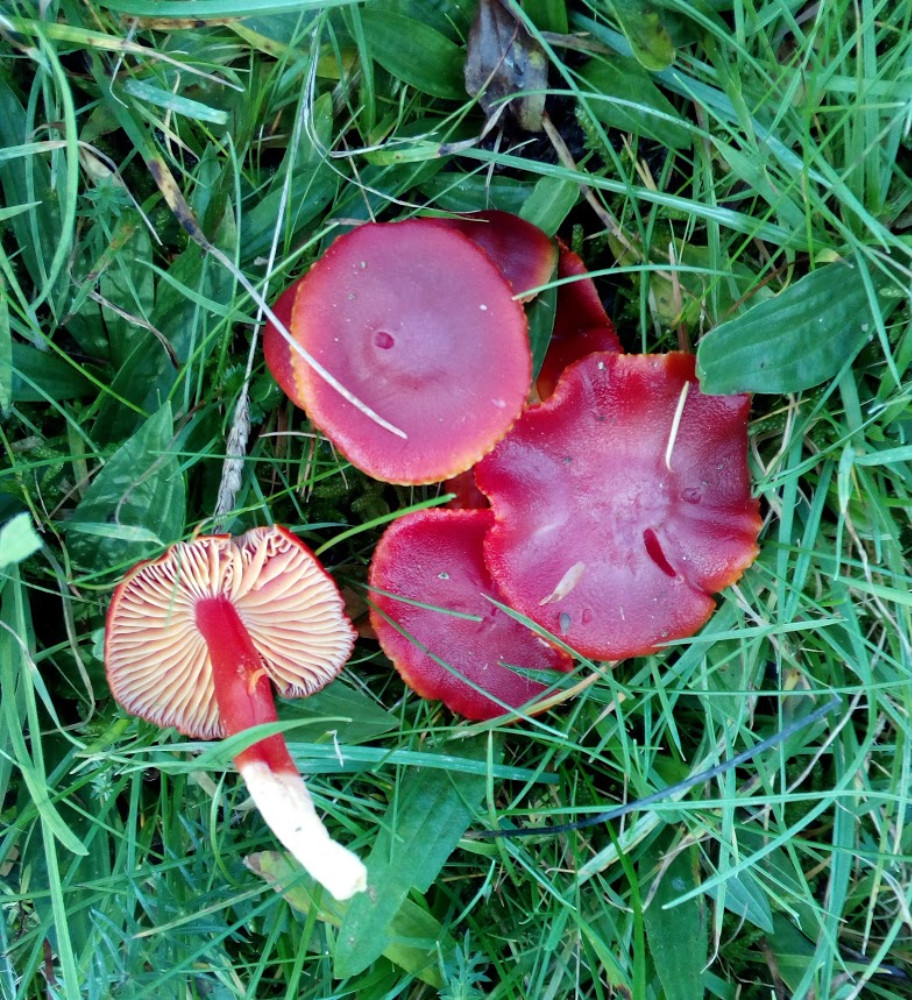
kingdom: Fungi
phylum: Basidiomycota
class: Agaricomycetes
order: Agaricales
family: Hygrophoraceae
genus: Hygrocybe
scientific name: Hygrocybe coccinea
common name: cinnober-vokshat
